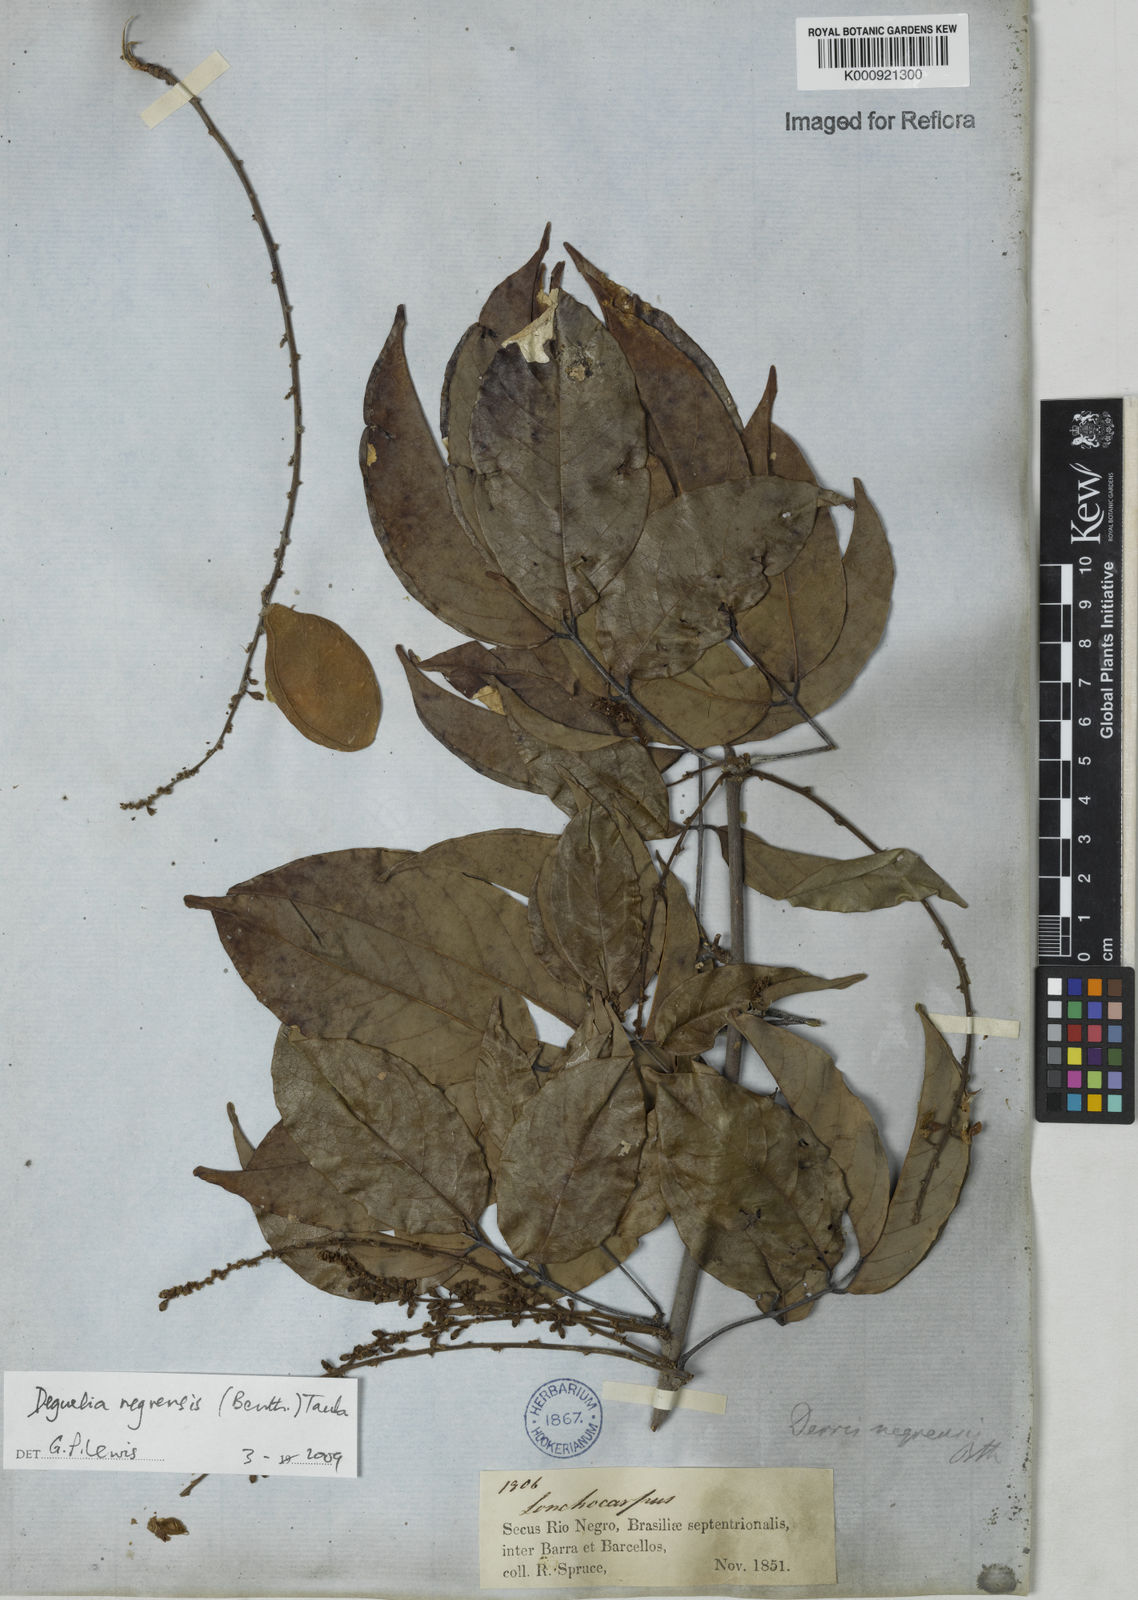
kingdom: Plantae
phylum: Tracheophyta
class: Magnoliopsida
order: Fabales
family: Fabaceae
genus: Deguelia
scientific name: Deguelia negrensis
